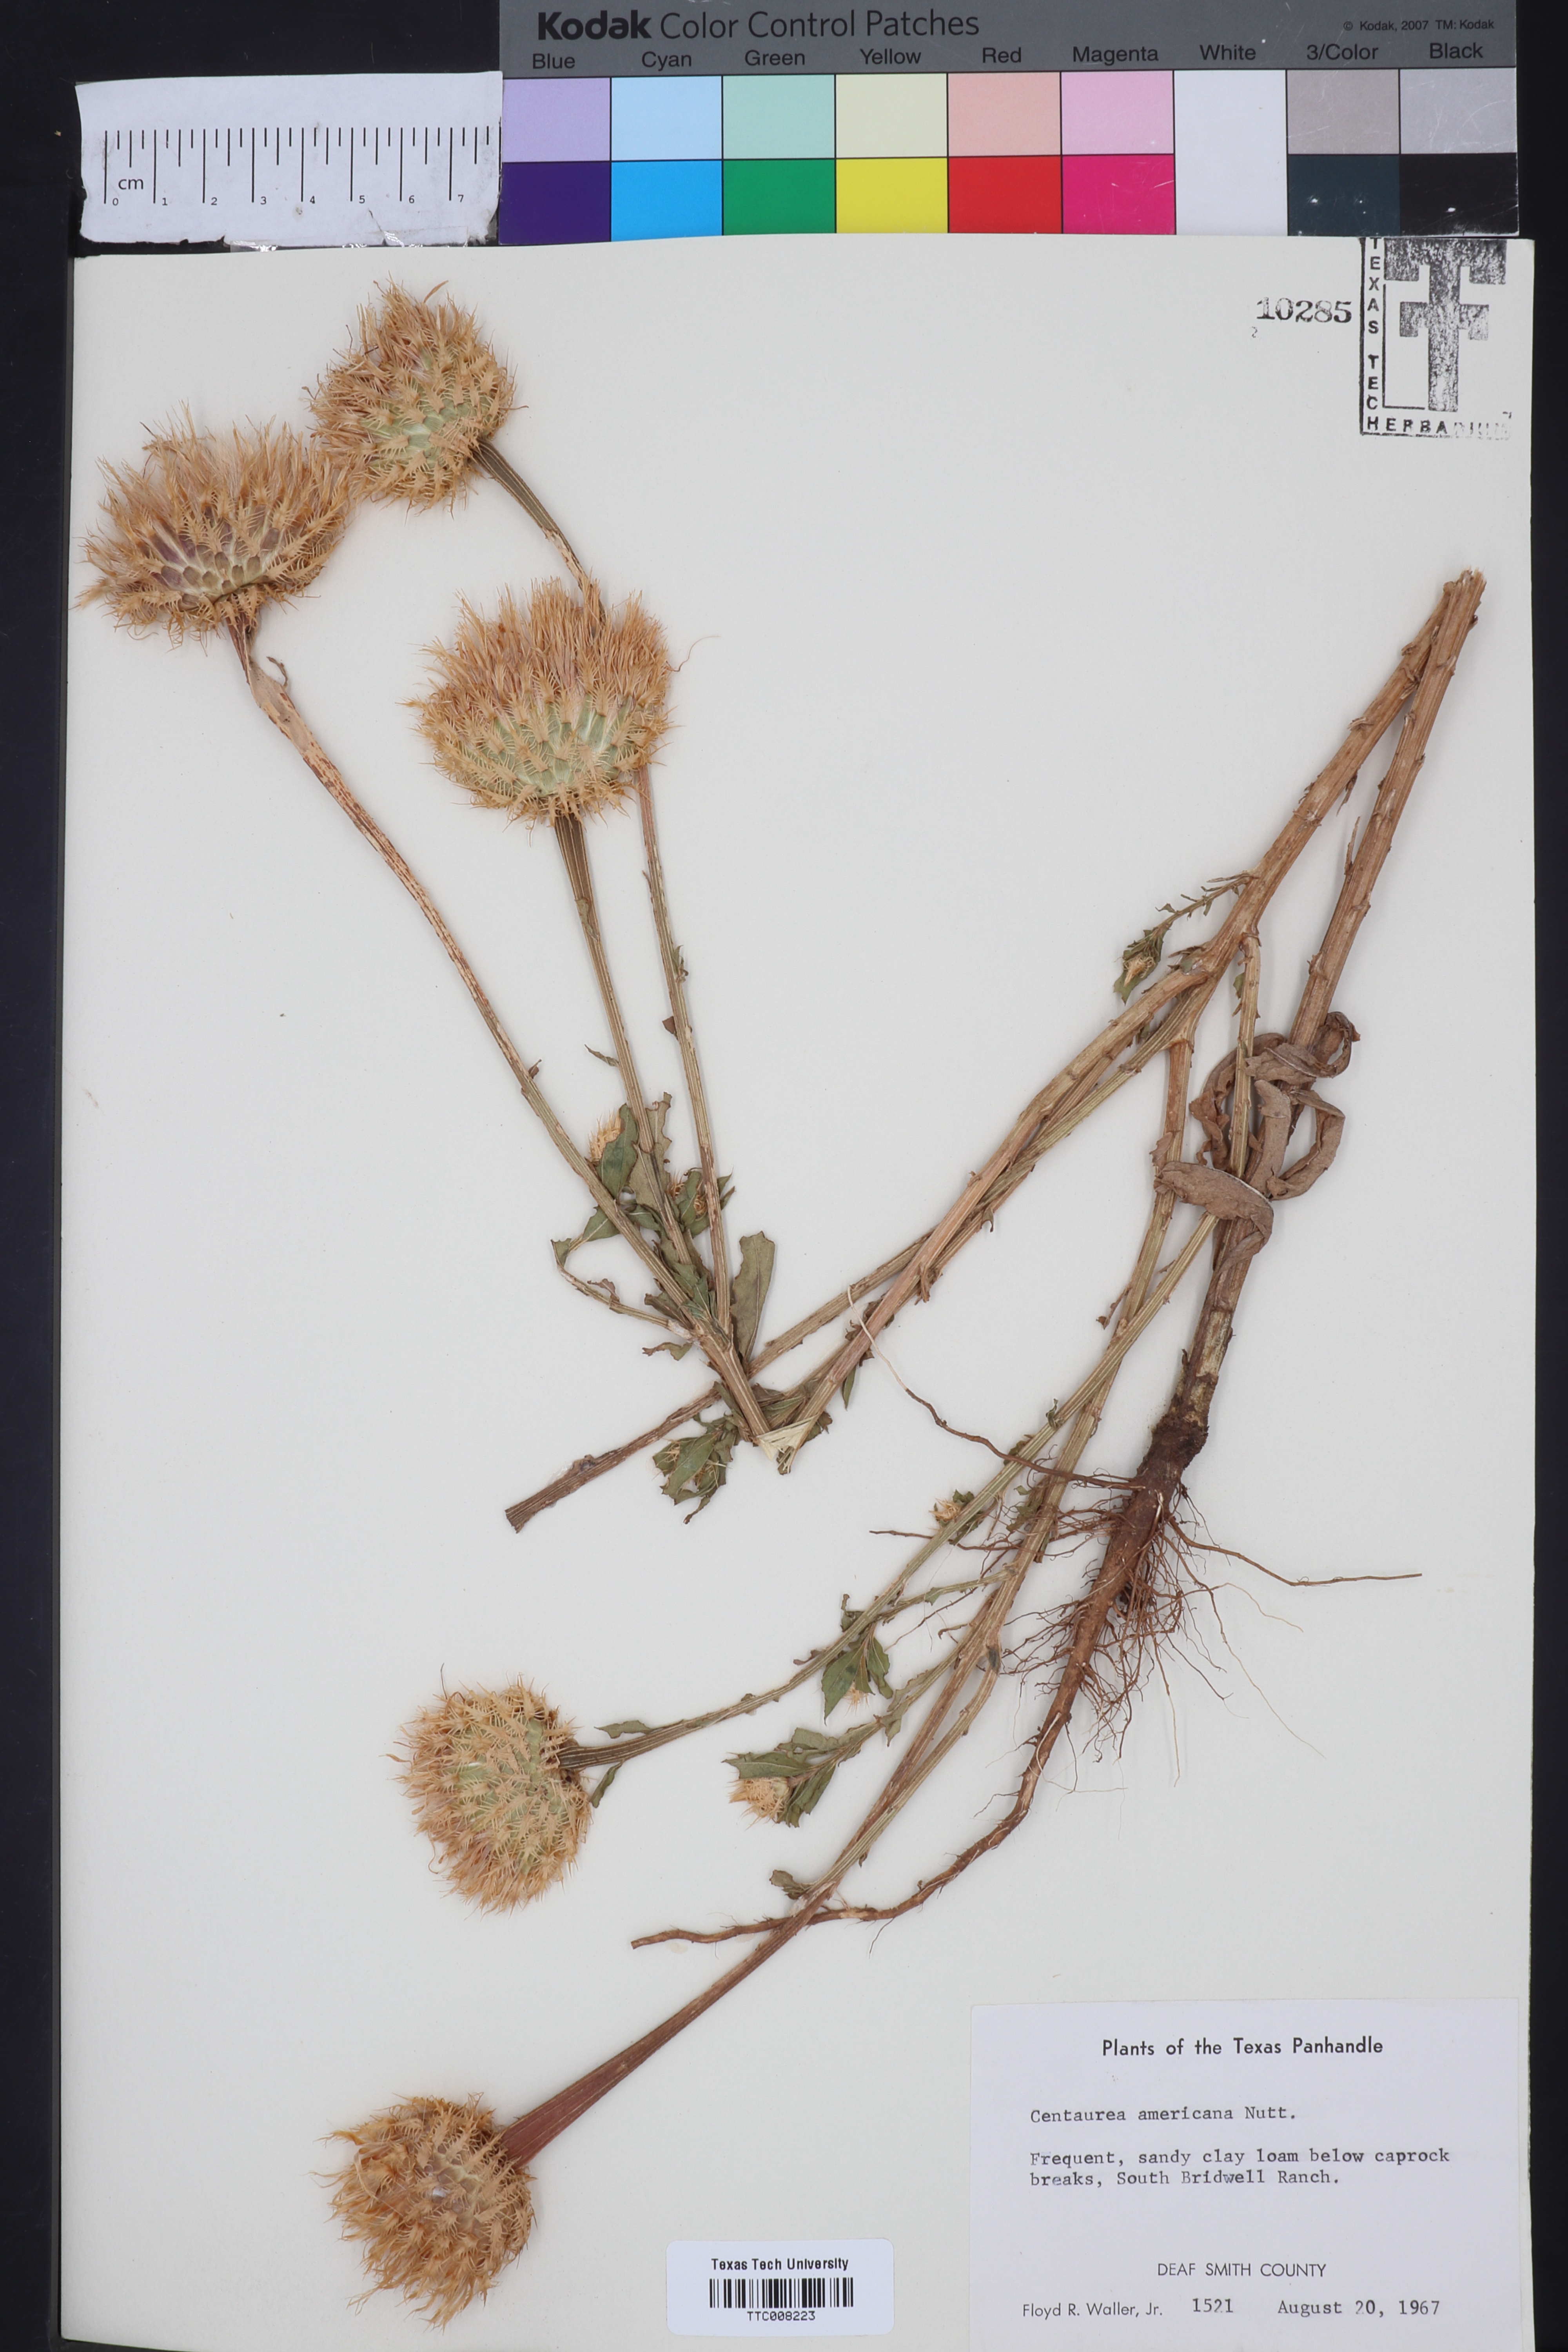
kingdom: Plantae
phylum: Tracheophyta
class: Magnoliopsida
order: Asterales
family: Asteraceae
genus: Plectocephalus
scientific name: Plectocephalus americanus
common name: American basket-flower
